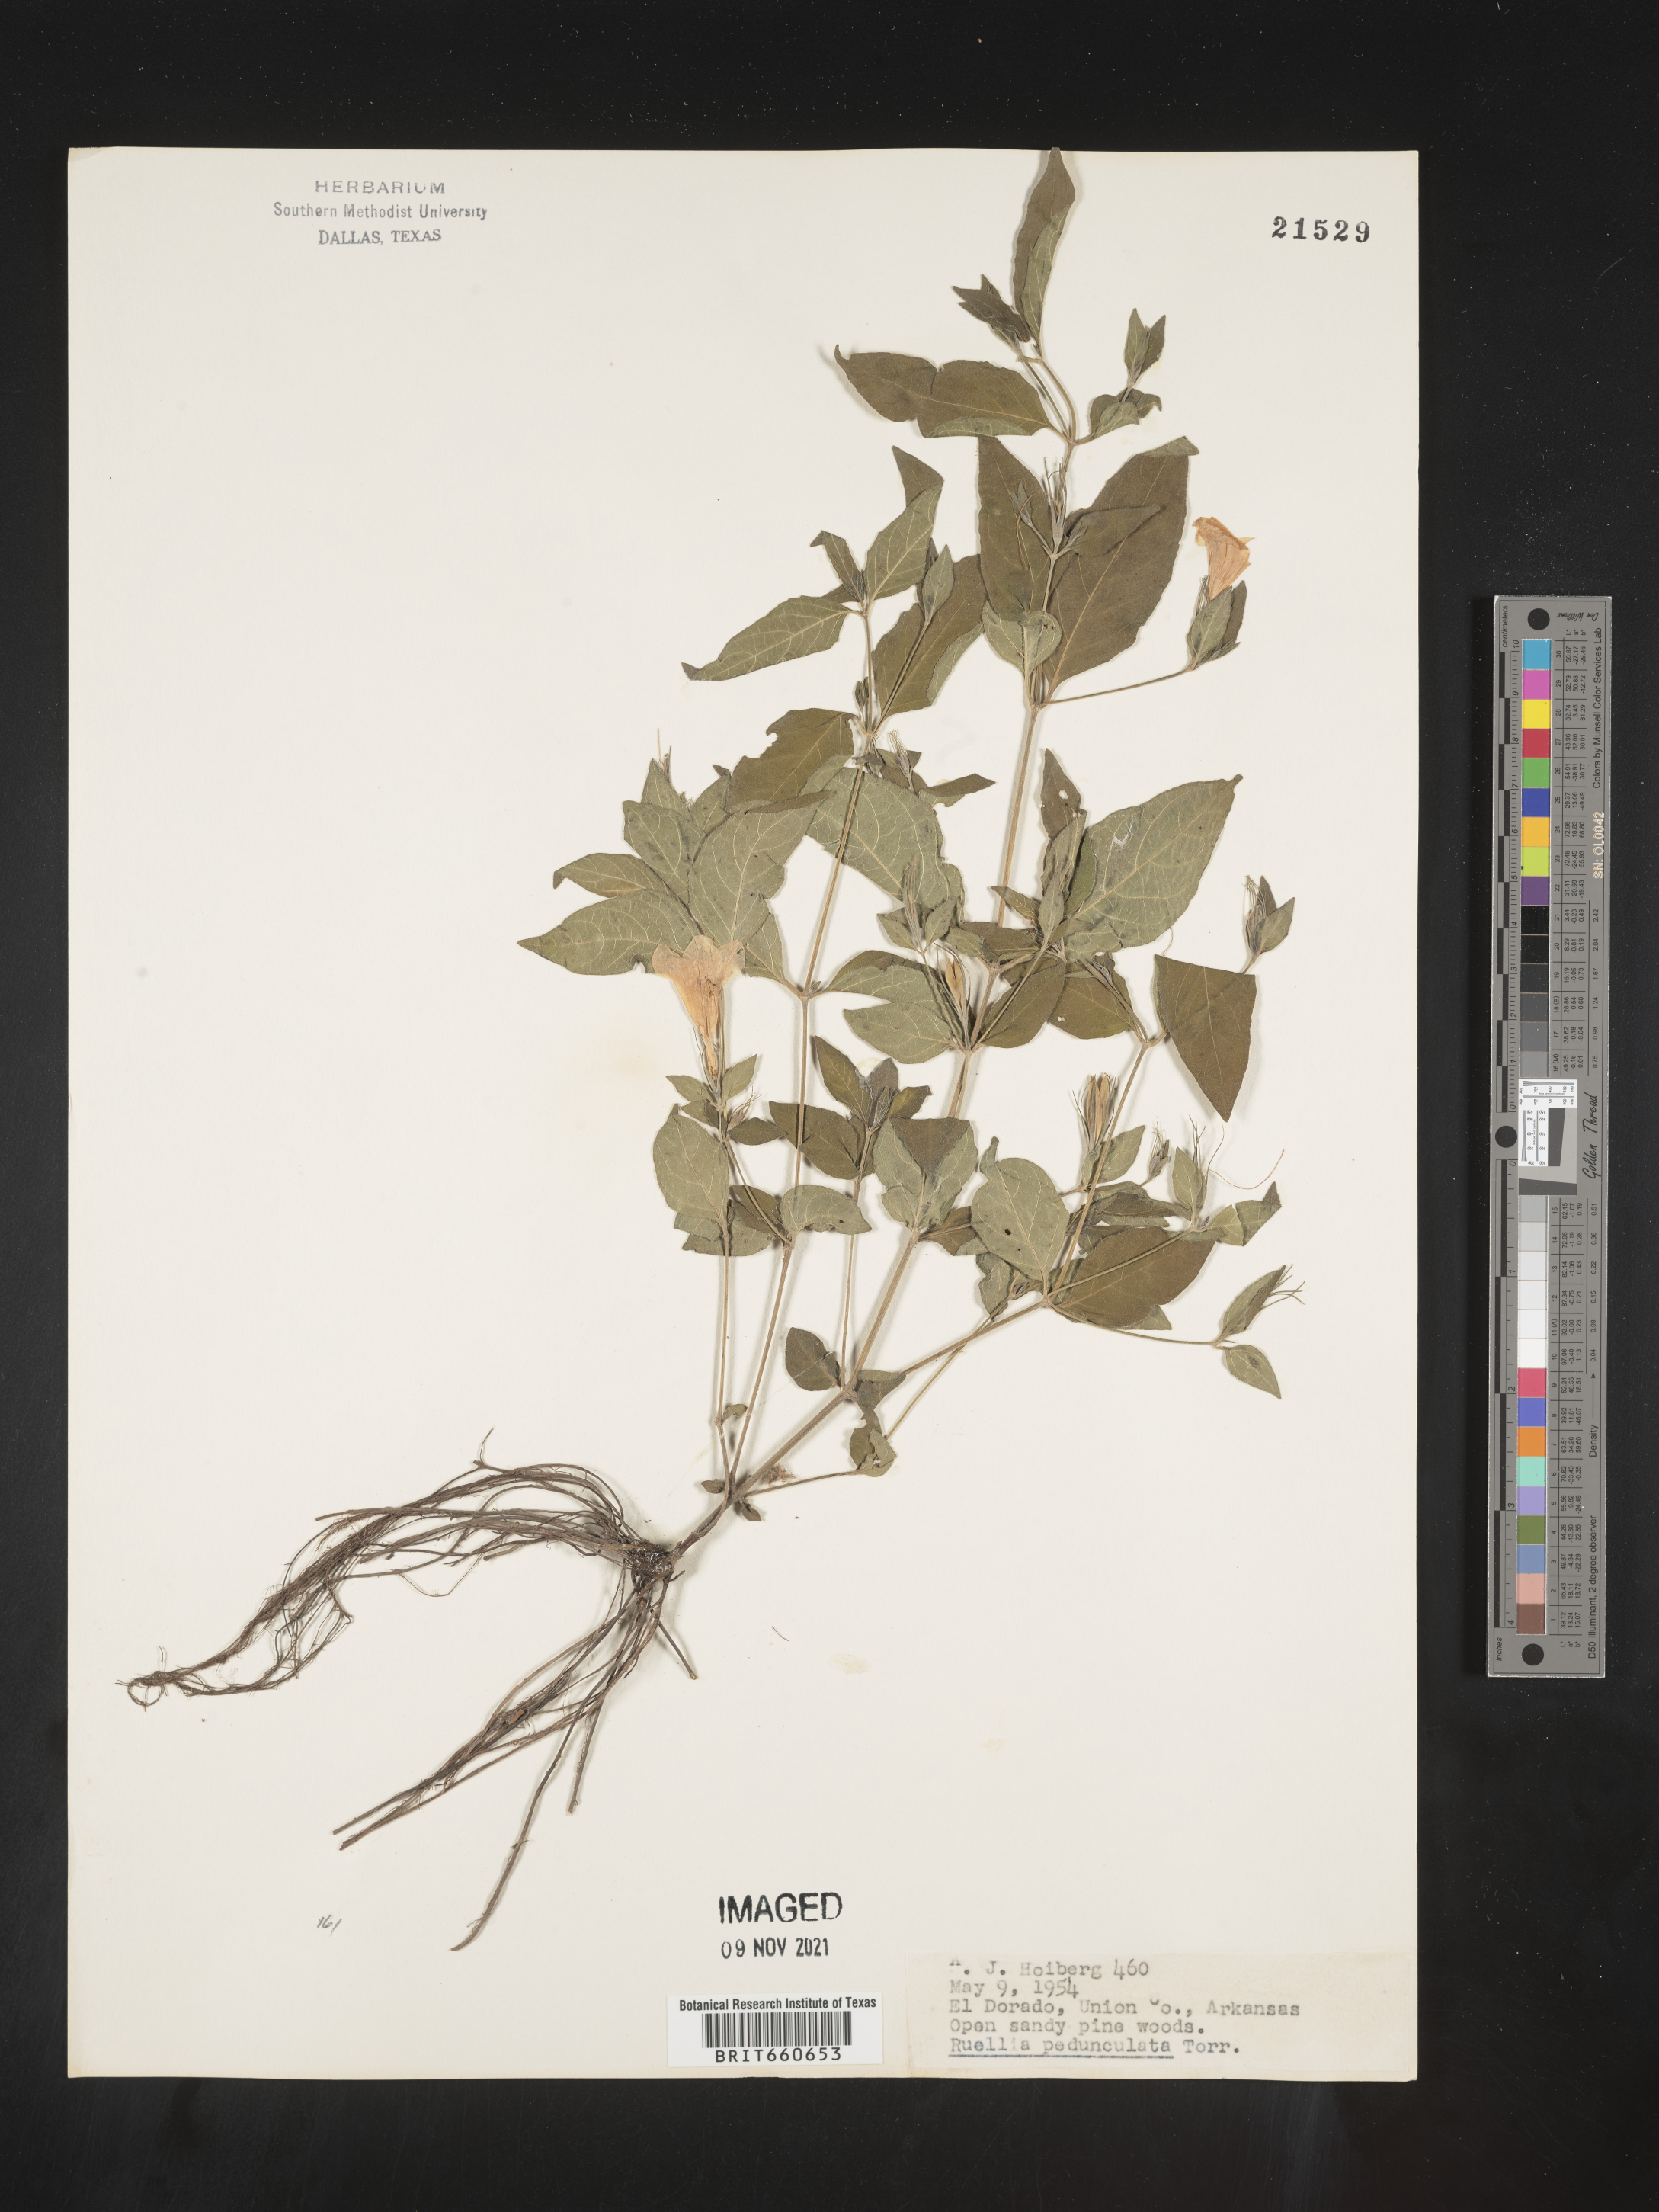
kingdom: Plantae
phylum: Tracheophyta
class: Magnoliopsida
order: Lamiales
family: Acanthaceae
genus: Ruellia
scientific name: Ruellia pedunculata
